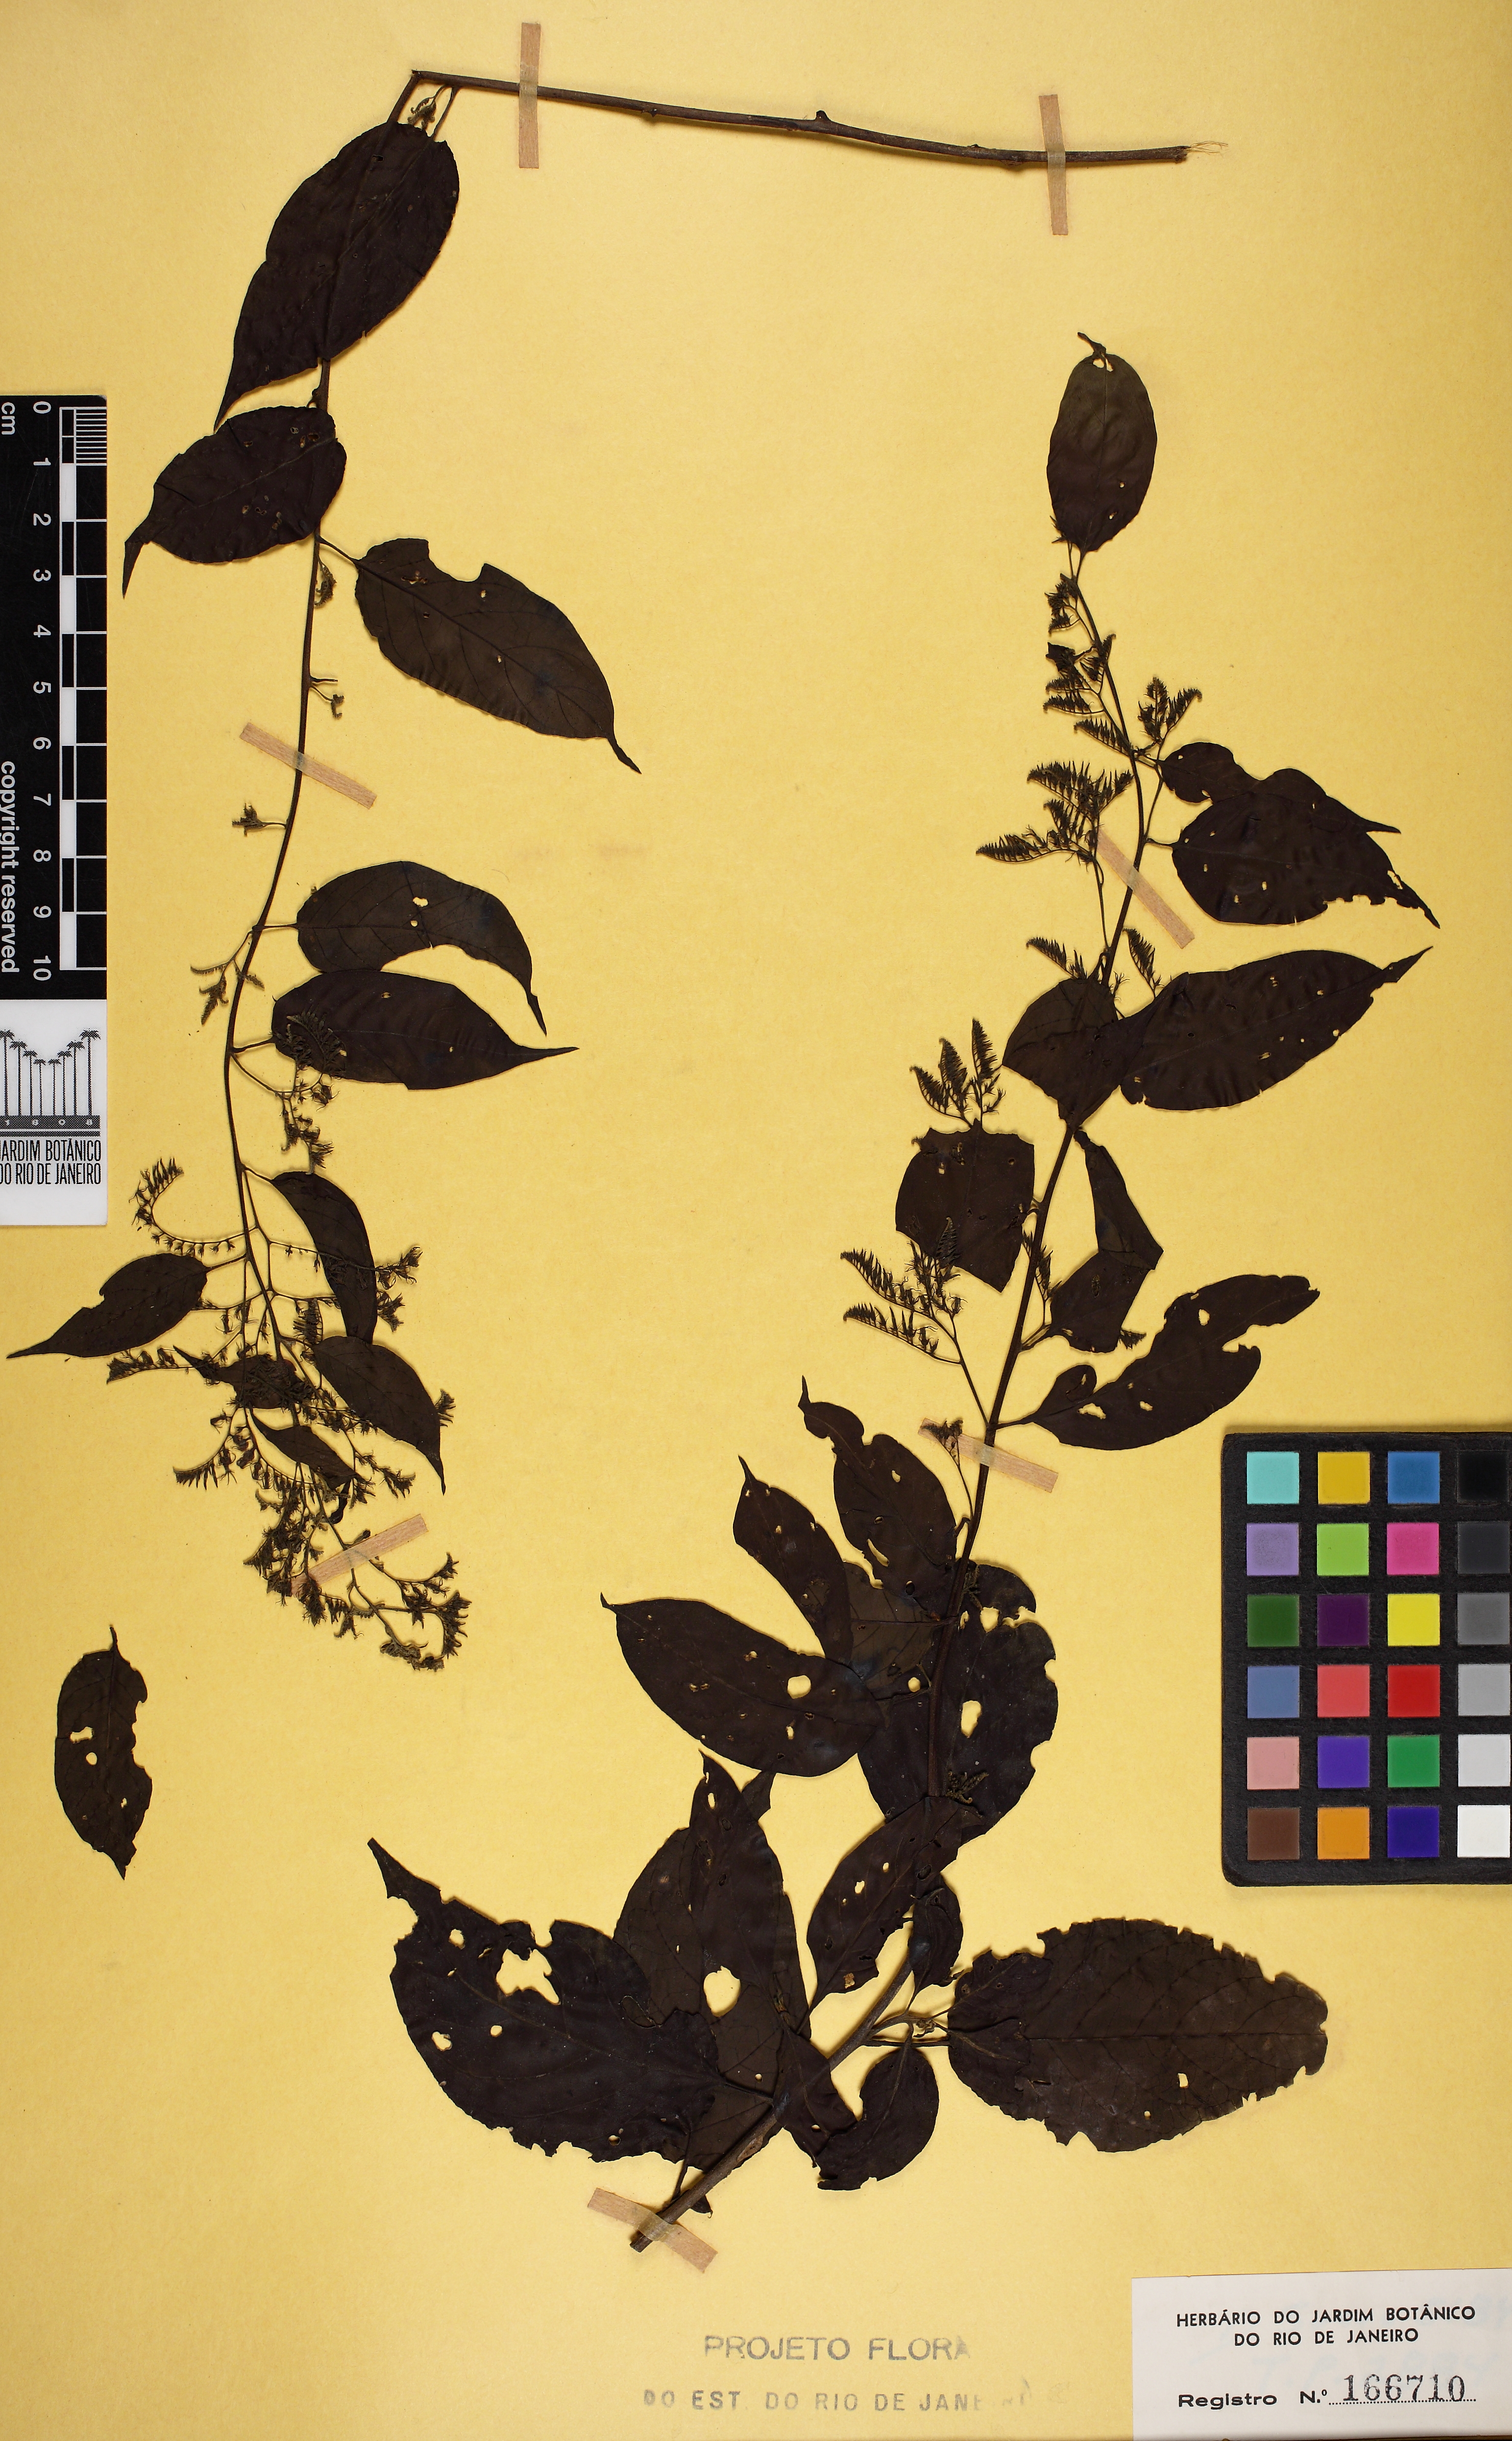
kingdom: Plantae
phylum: Tracheophyta
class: Magnoliopsida
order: Boraginales
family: Heliotropiaceae
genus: Myriopus
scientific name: Myriopus breviflorus
